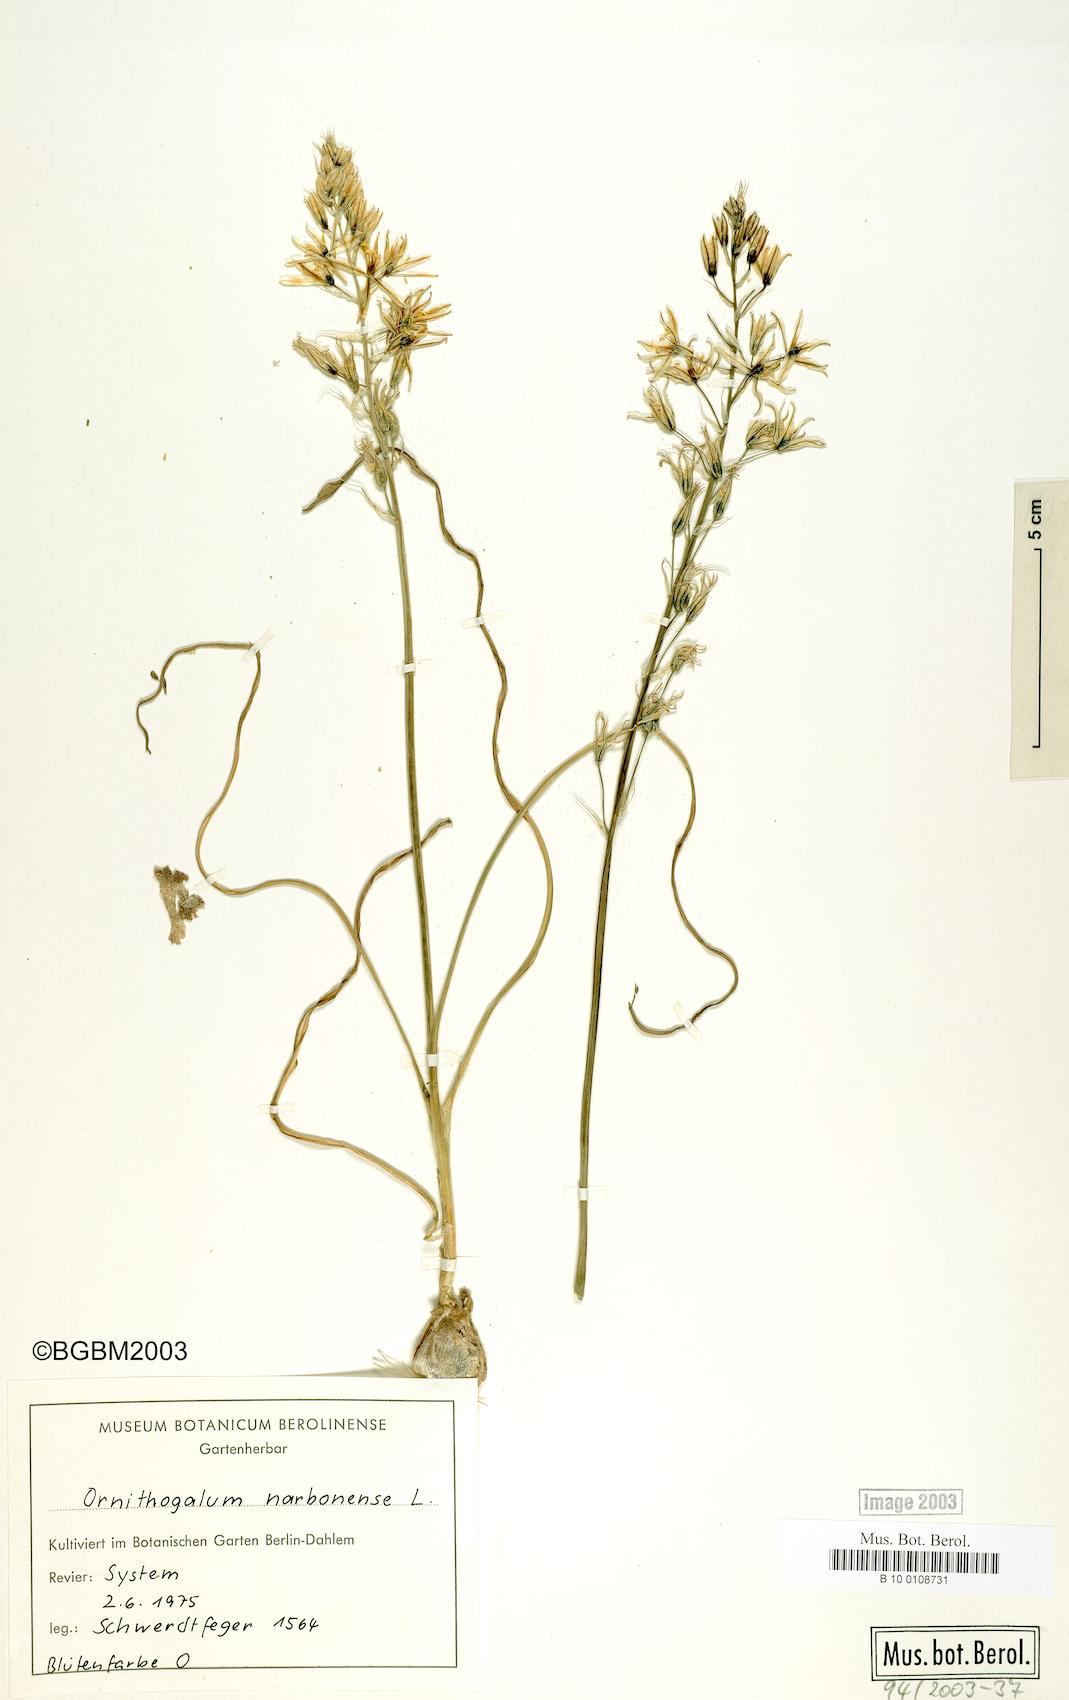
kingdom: Plantae
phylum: Tracheophyta
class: Liliopsida
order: Asparagales
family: Asparagaceae
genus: Ornithogalum
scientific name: Ornithogalum narbonense
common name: Bath-asparagus
